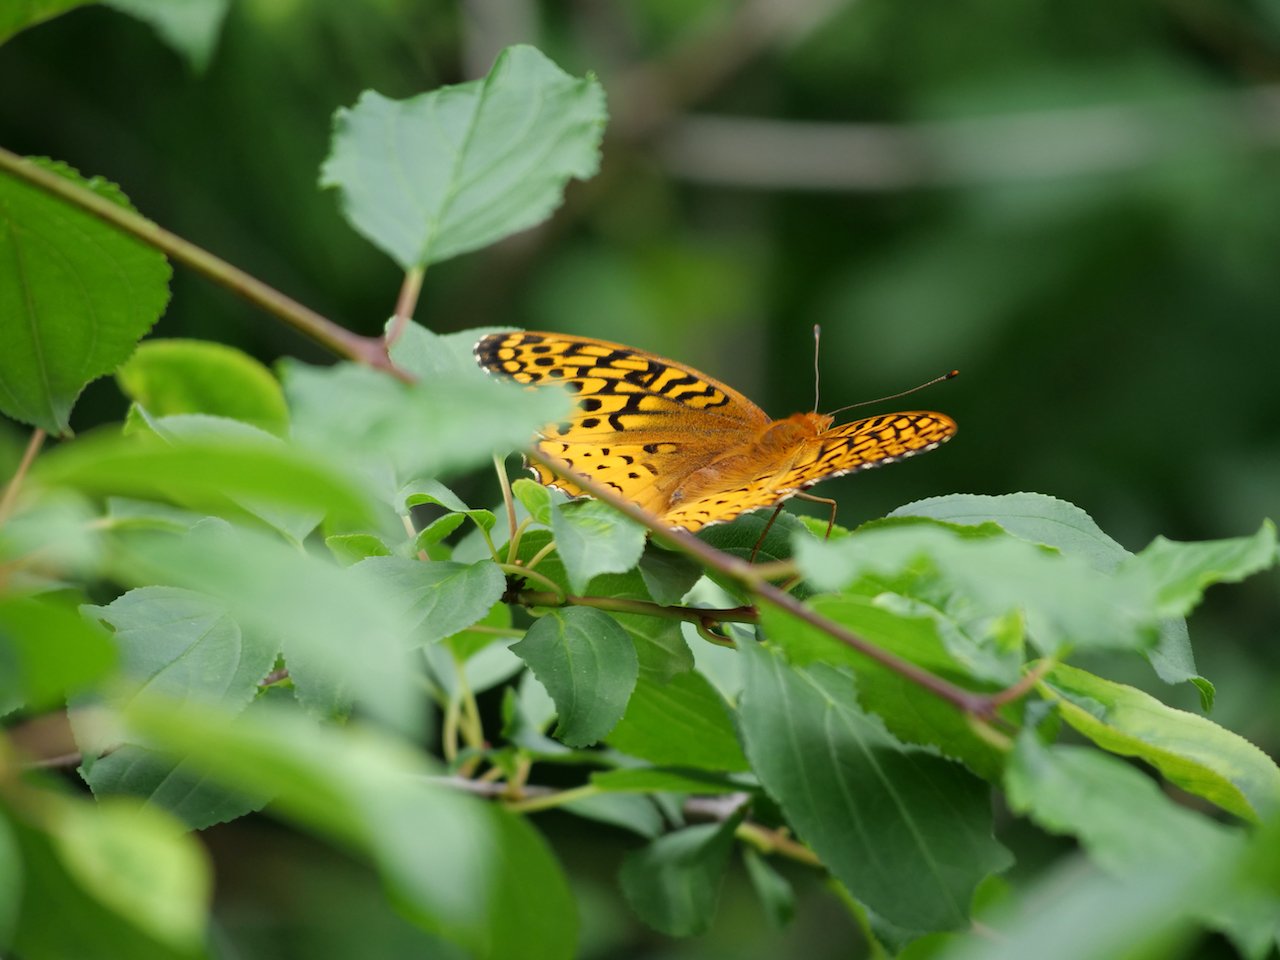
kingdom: Animalia
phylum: Arthropoda
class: Insecta
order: Lepidoptera
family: Nymphalidae
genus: Speyeria
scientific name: Speyeria cybele
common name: Great Spangled Fritillary
